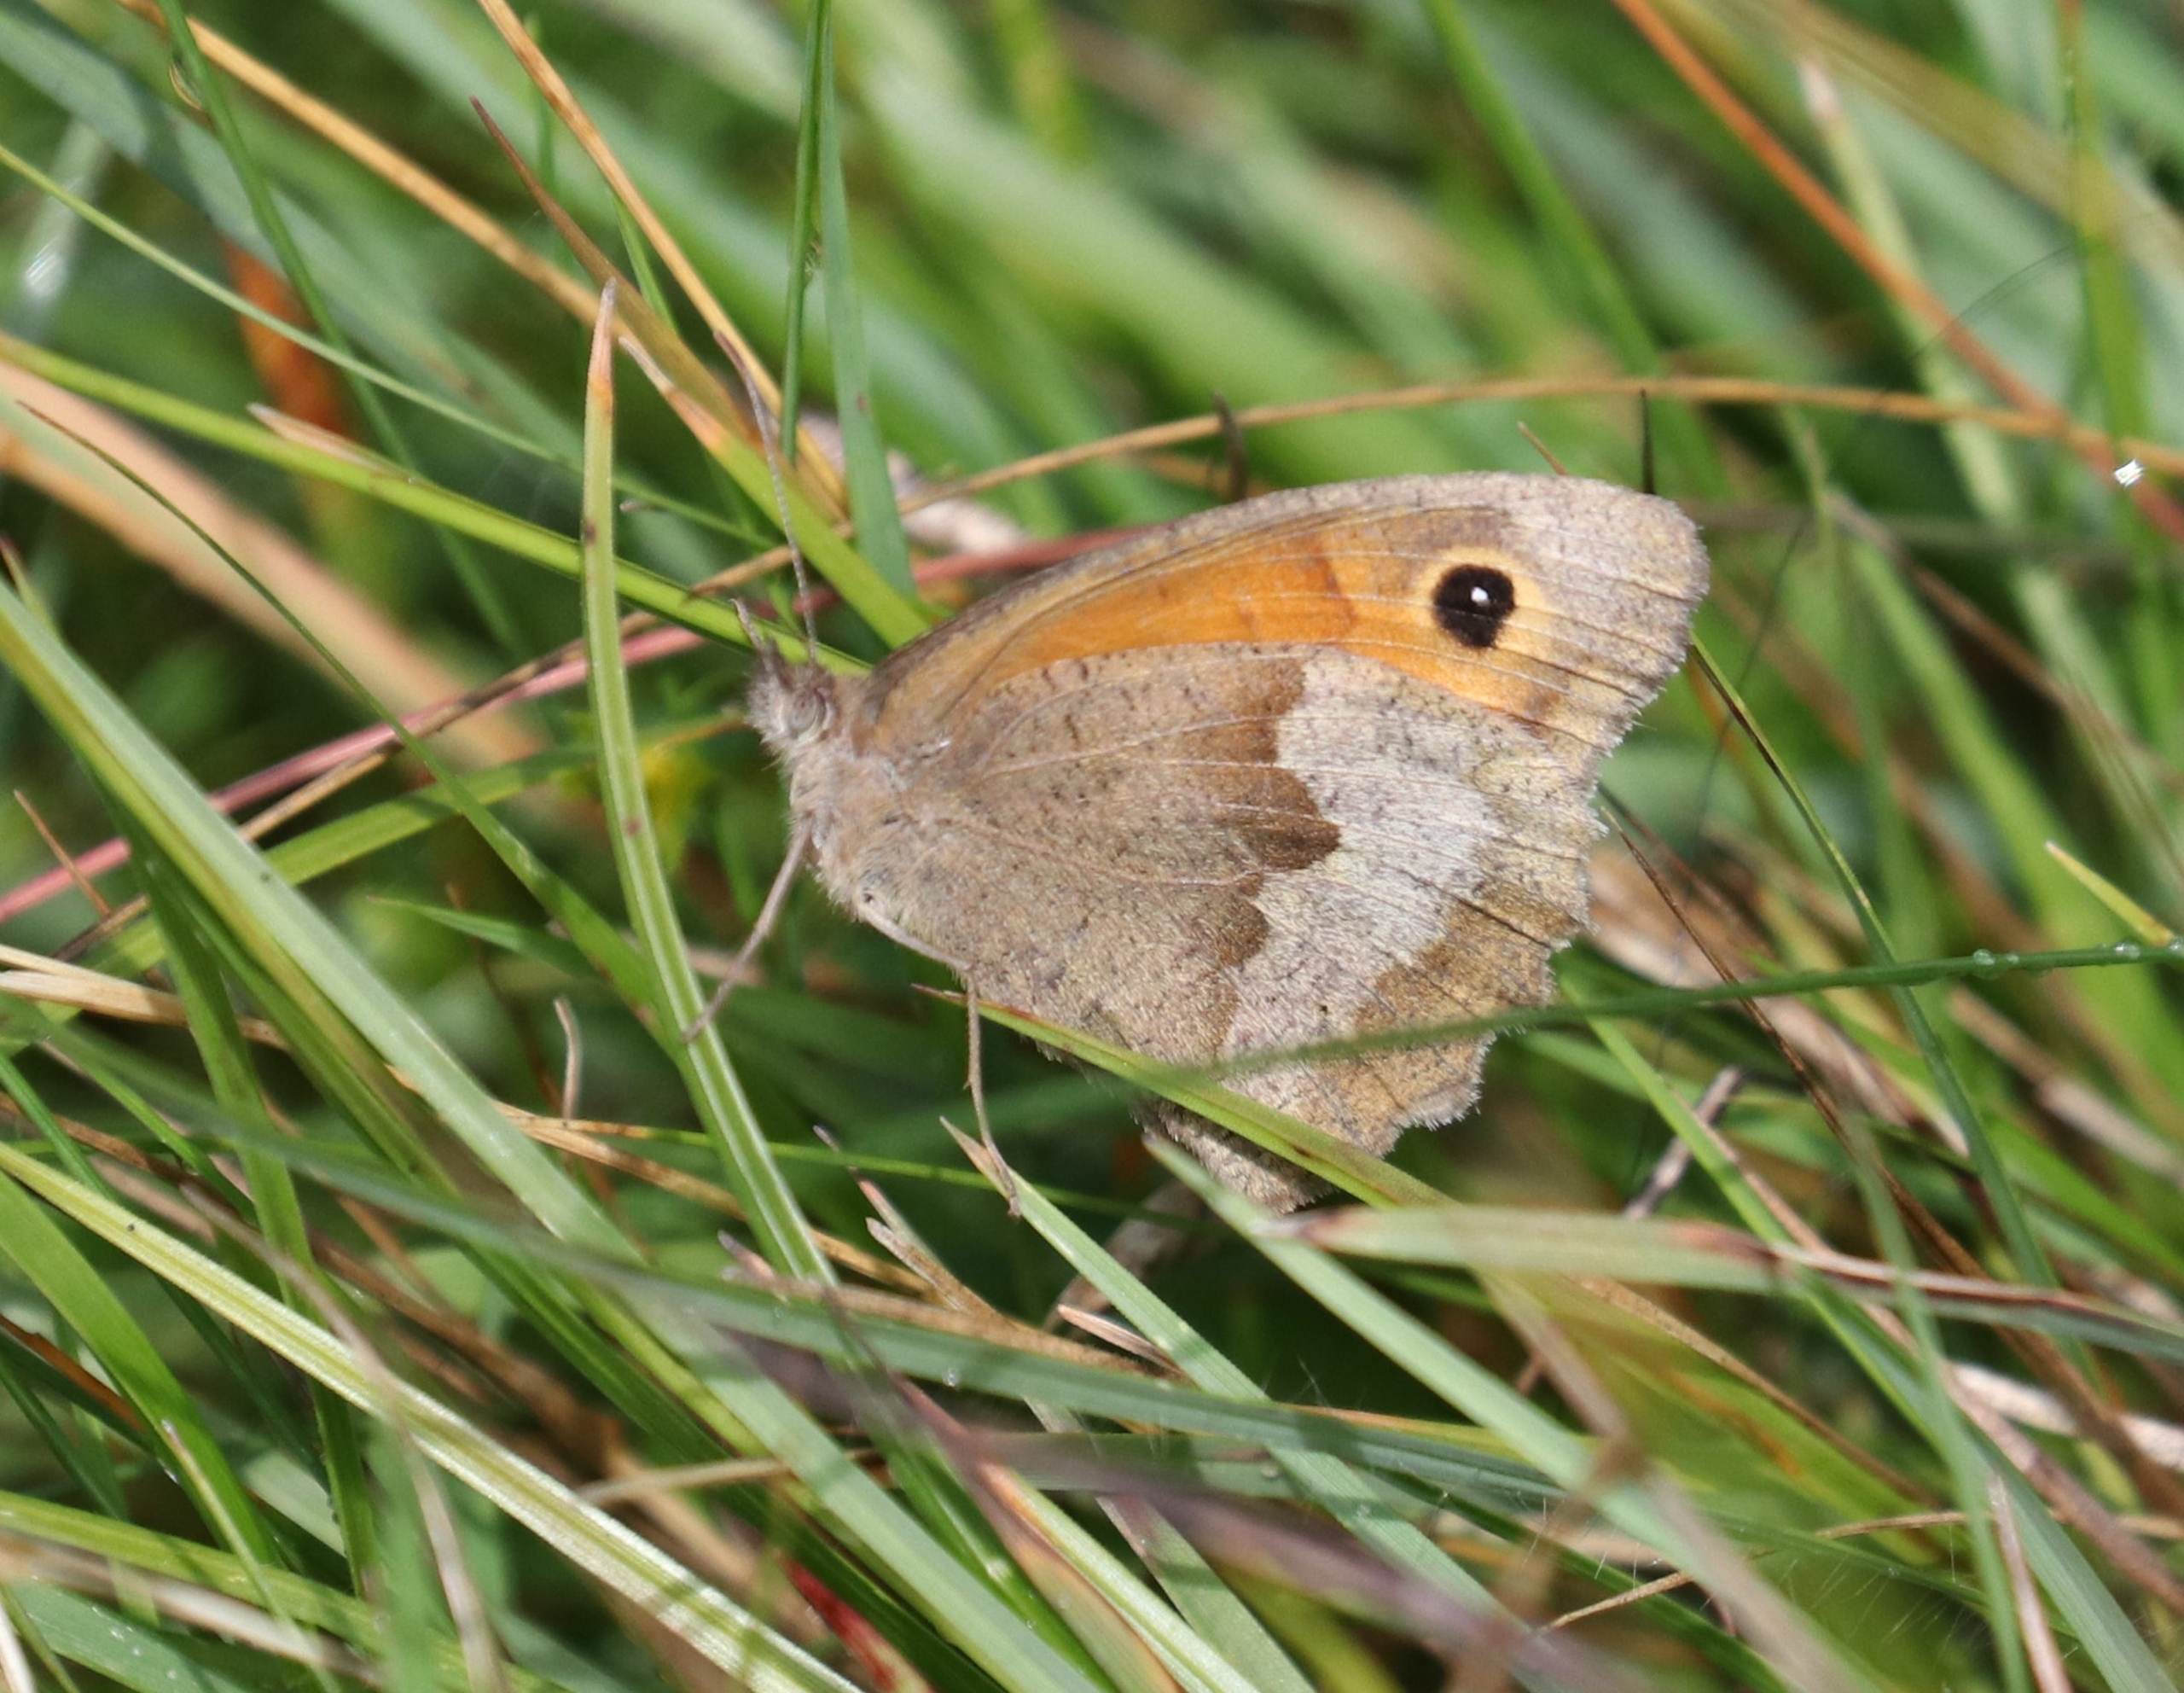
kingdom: Animalia
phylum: Arthropoda
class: Insecta
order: Lepidoptera
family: Nymphalidae
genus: Maniola
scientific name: Maniola jurtina
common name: Græsrandøje
